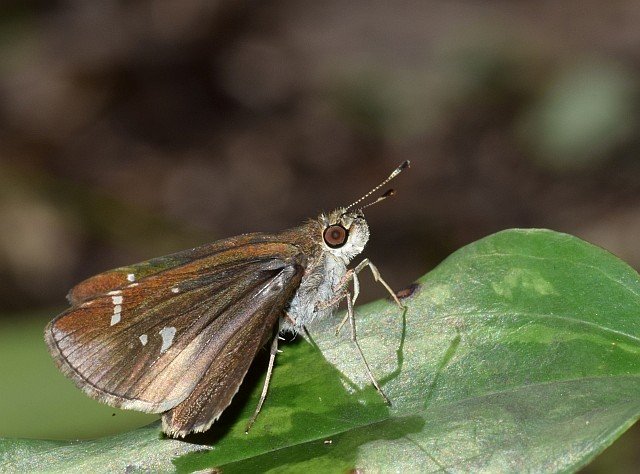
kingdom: Animalia
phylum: Arthropoda
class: Insecta
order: Lepidoptera
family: Hesperiidae
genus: Lerema
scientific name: Lerema accius
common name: Clouded Skipper
